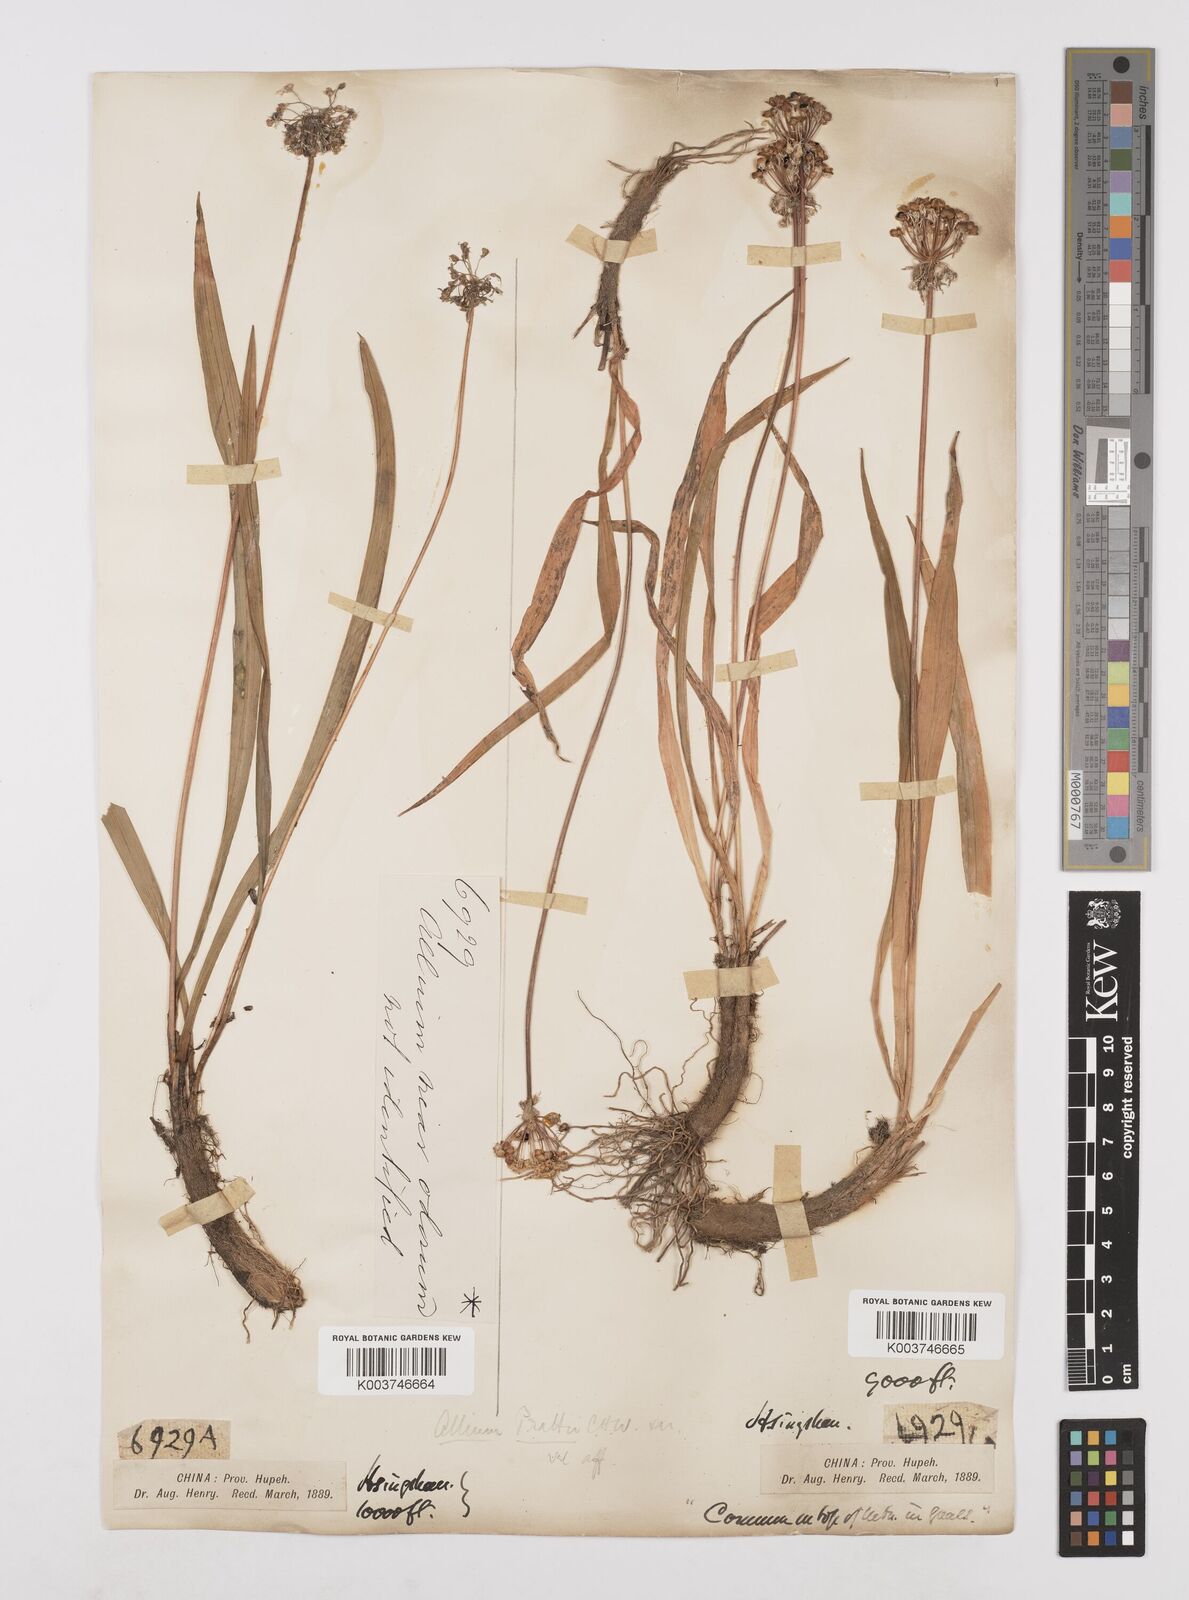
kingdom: Plantae
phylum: Tracheophyta
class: Liliopsida
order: Asparagales
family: Amaryllidaceae
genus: Allium
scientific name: Allium prattii
